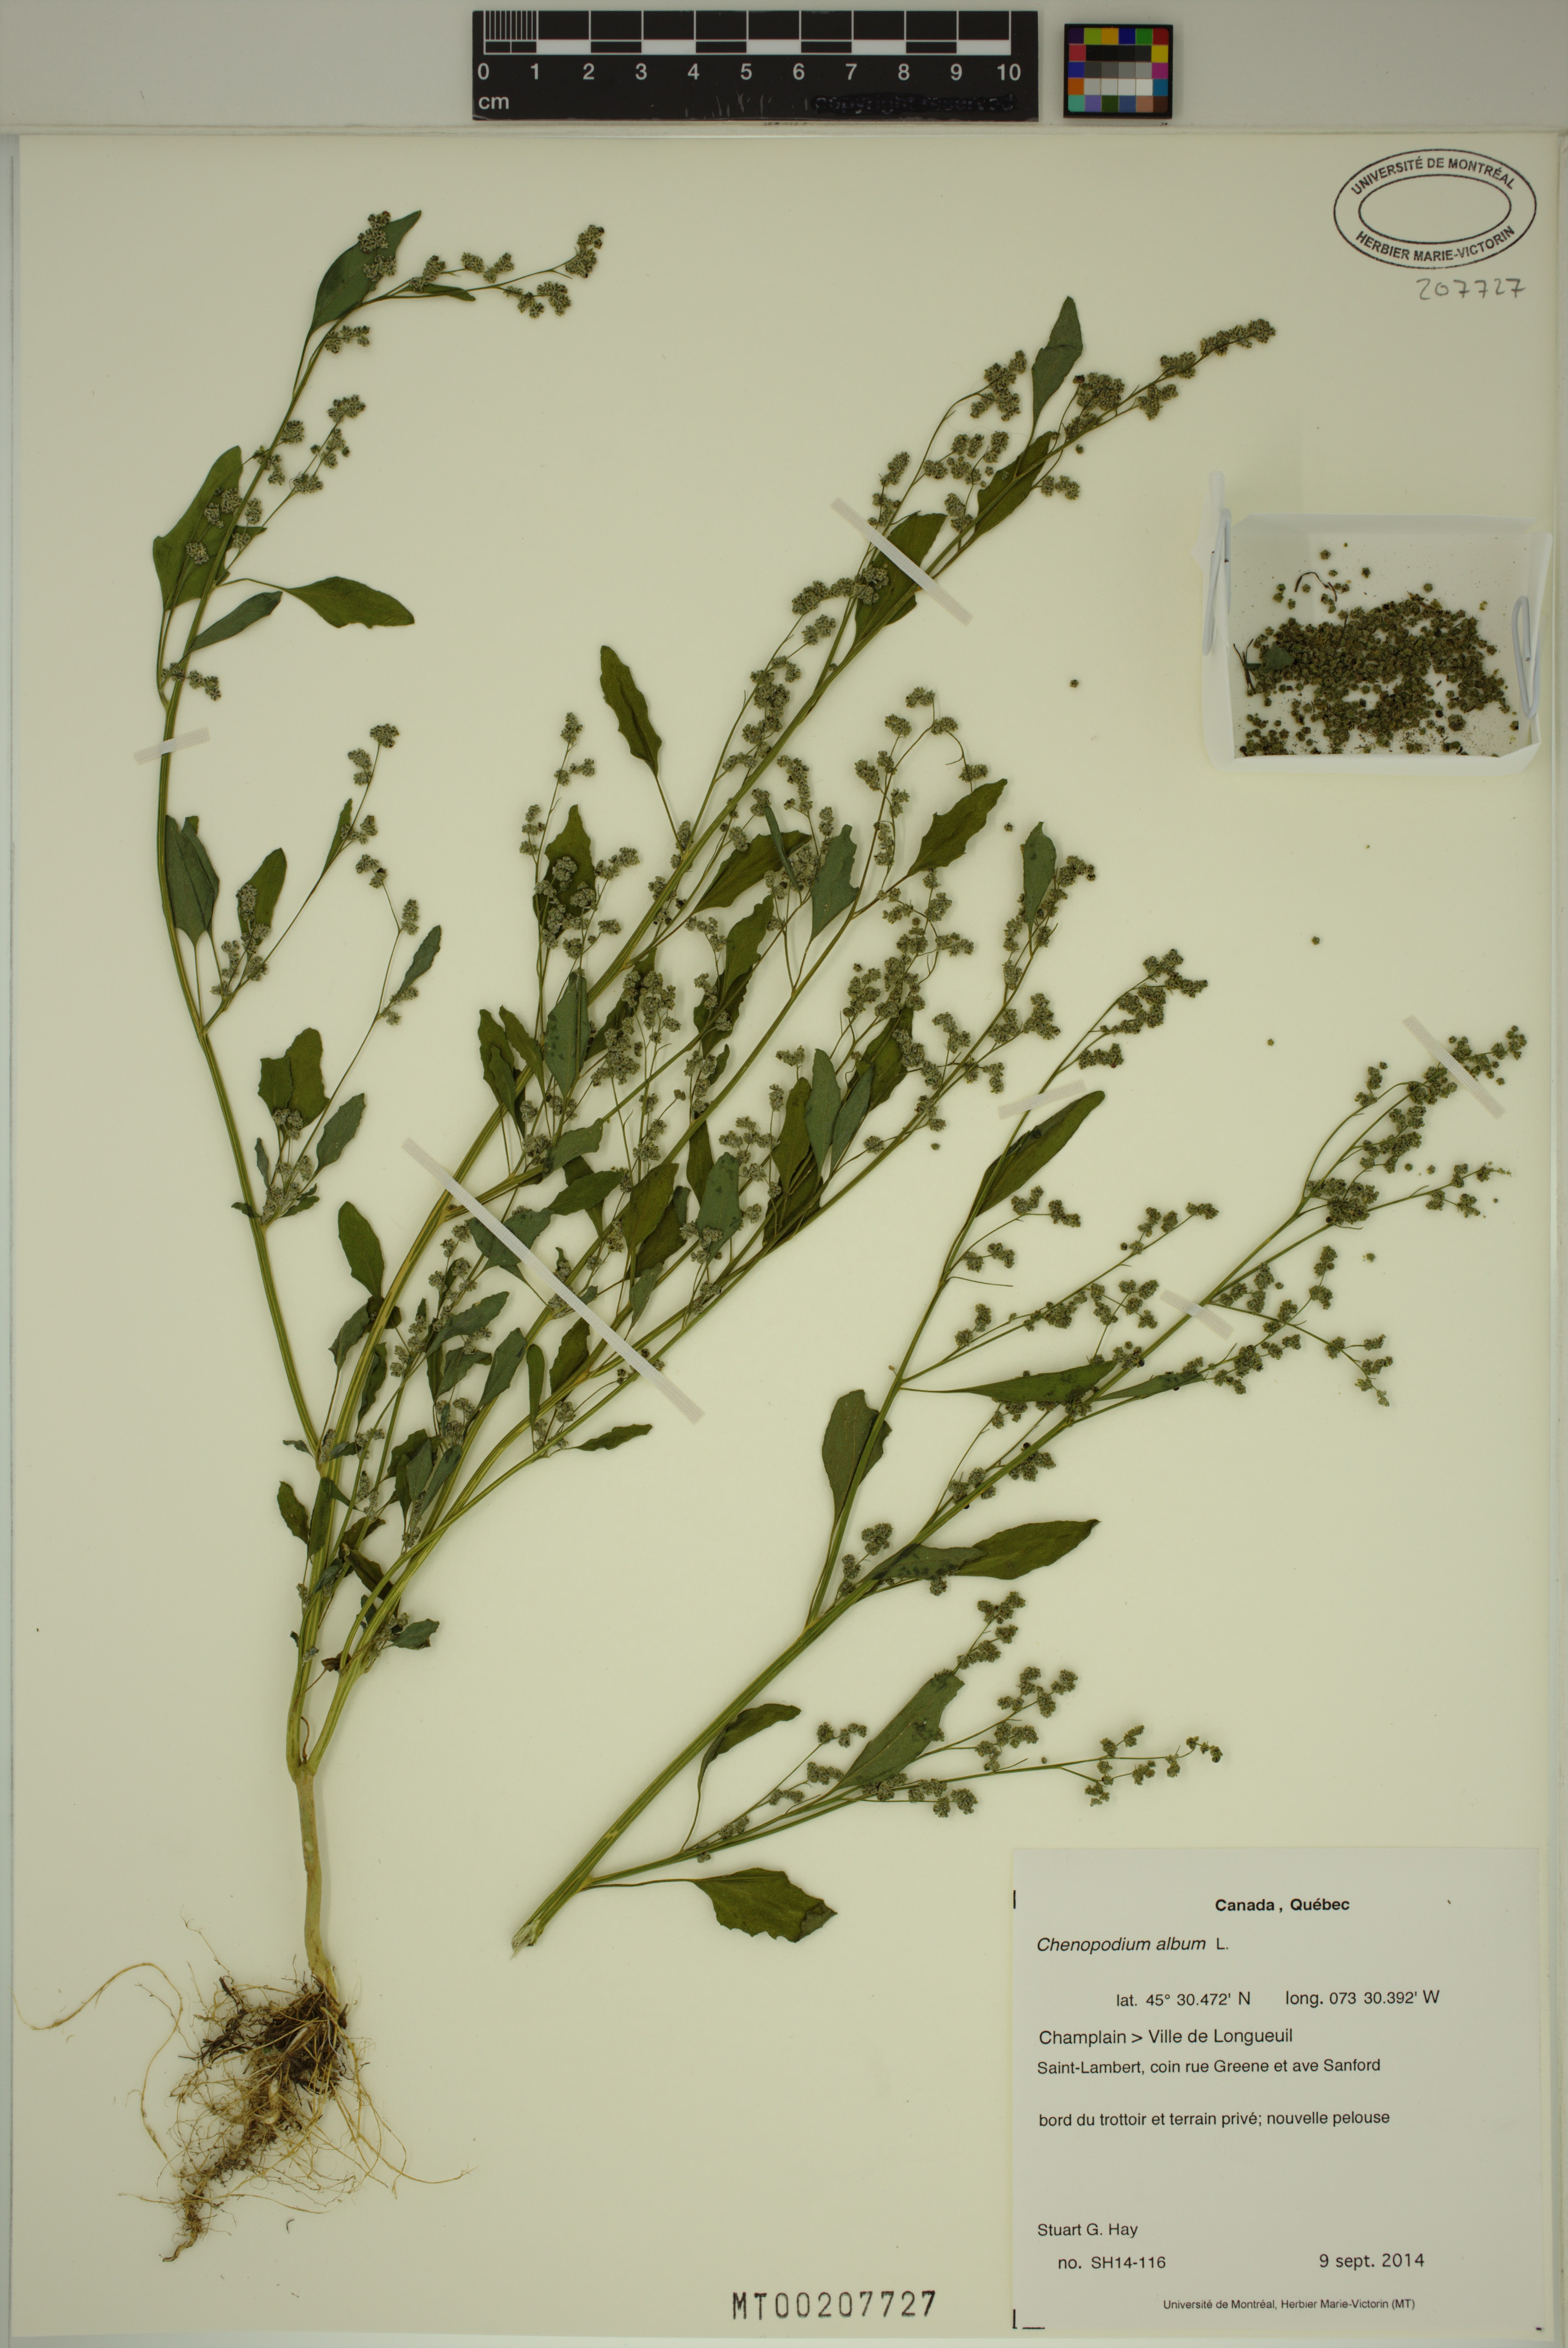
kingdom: Plantae
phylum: Tracheophyta
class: Magnoliopsida
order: Caryophyllales
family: Amaranthaceae
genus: Chenopodium
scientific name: Chenopodium album
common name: Fat-hen
